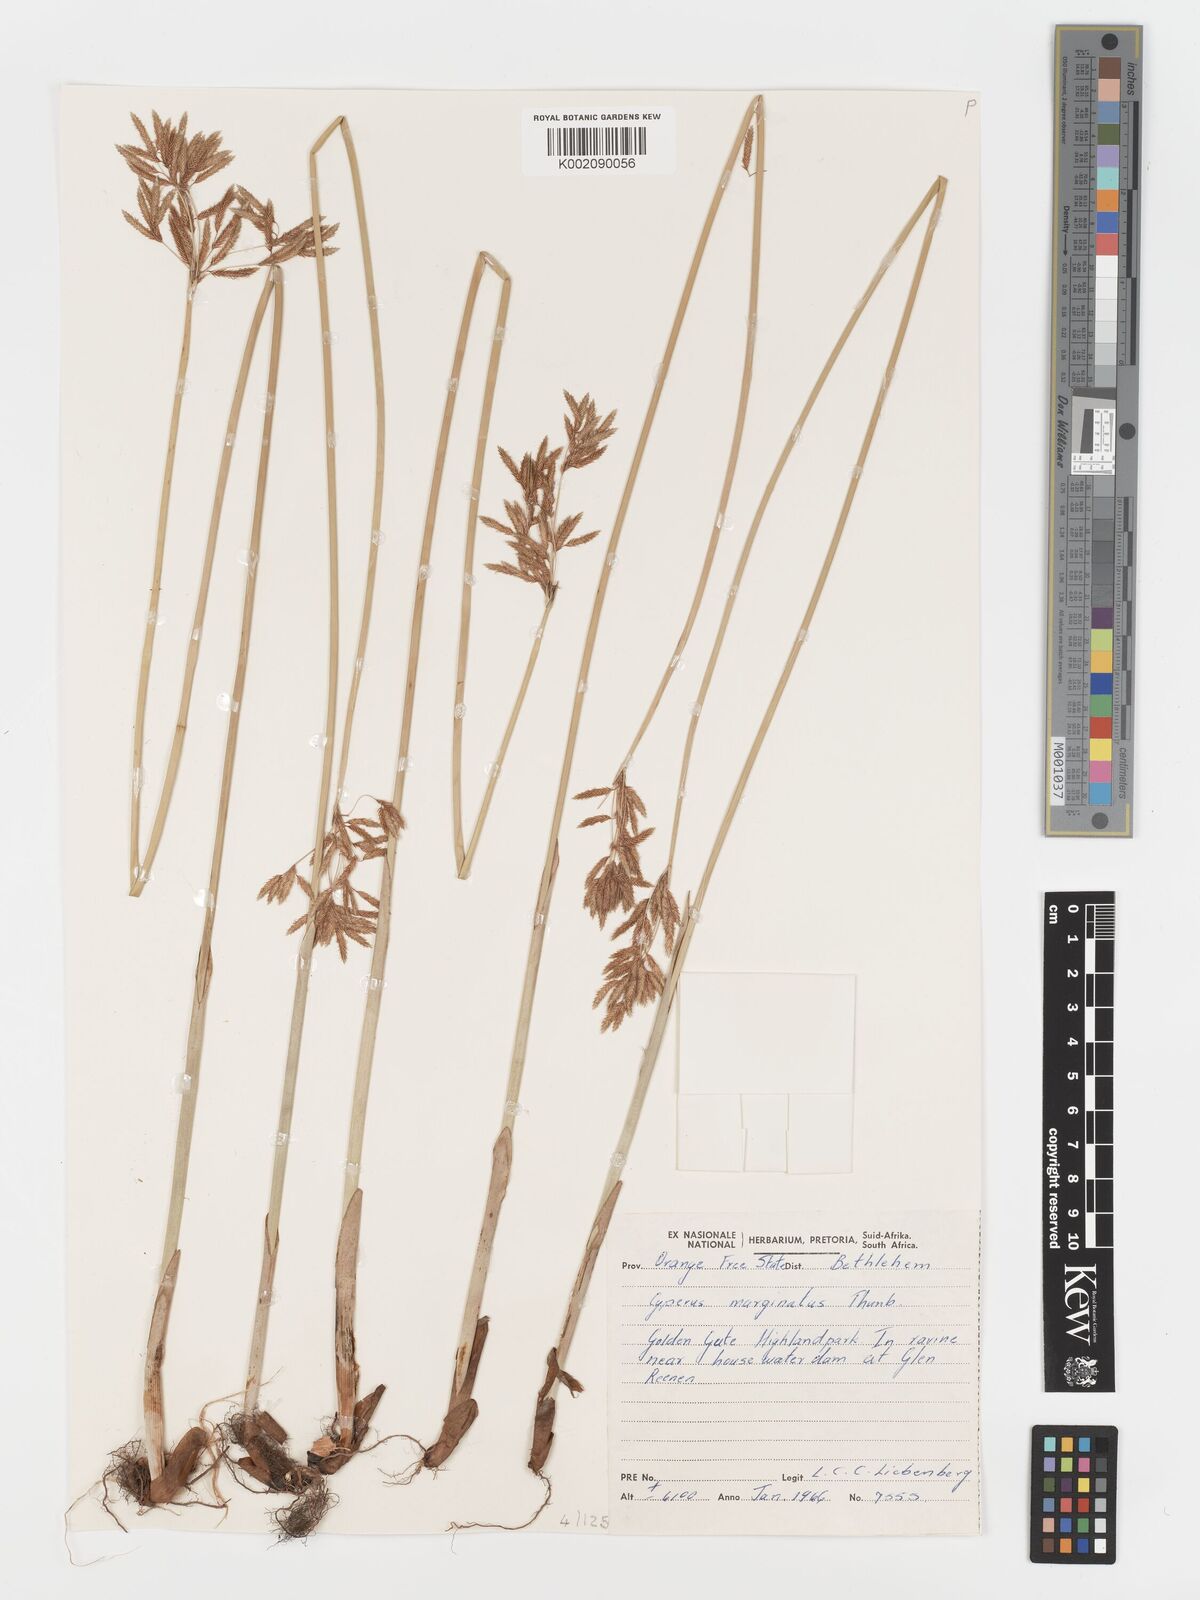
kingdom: Plantae
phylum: Tracheophyta
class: Liliopsida
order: Poales
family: Cyperaceae
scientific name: Cyperaceae
